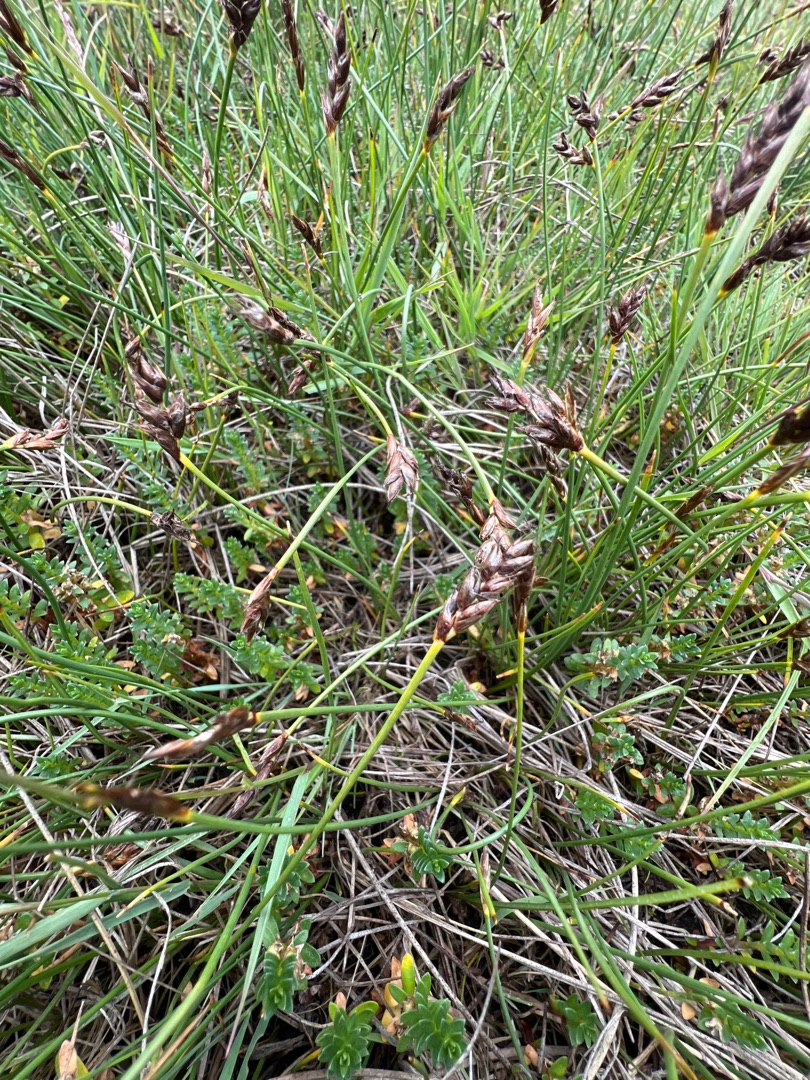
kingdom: Plantae
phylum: Tracheophyta
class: Liliopsida
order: Poales
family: Cyperaceae
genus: Blysmus
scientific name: Blysmus rufus
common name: Rødbrun kogleaks
